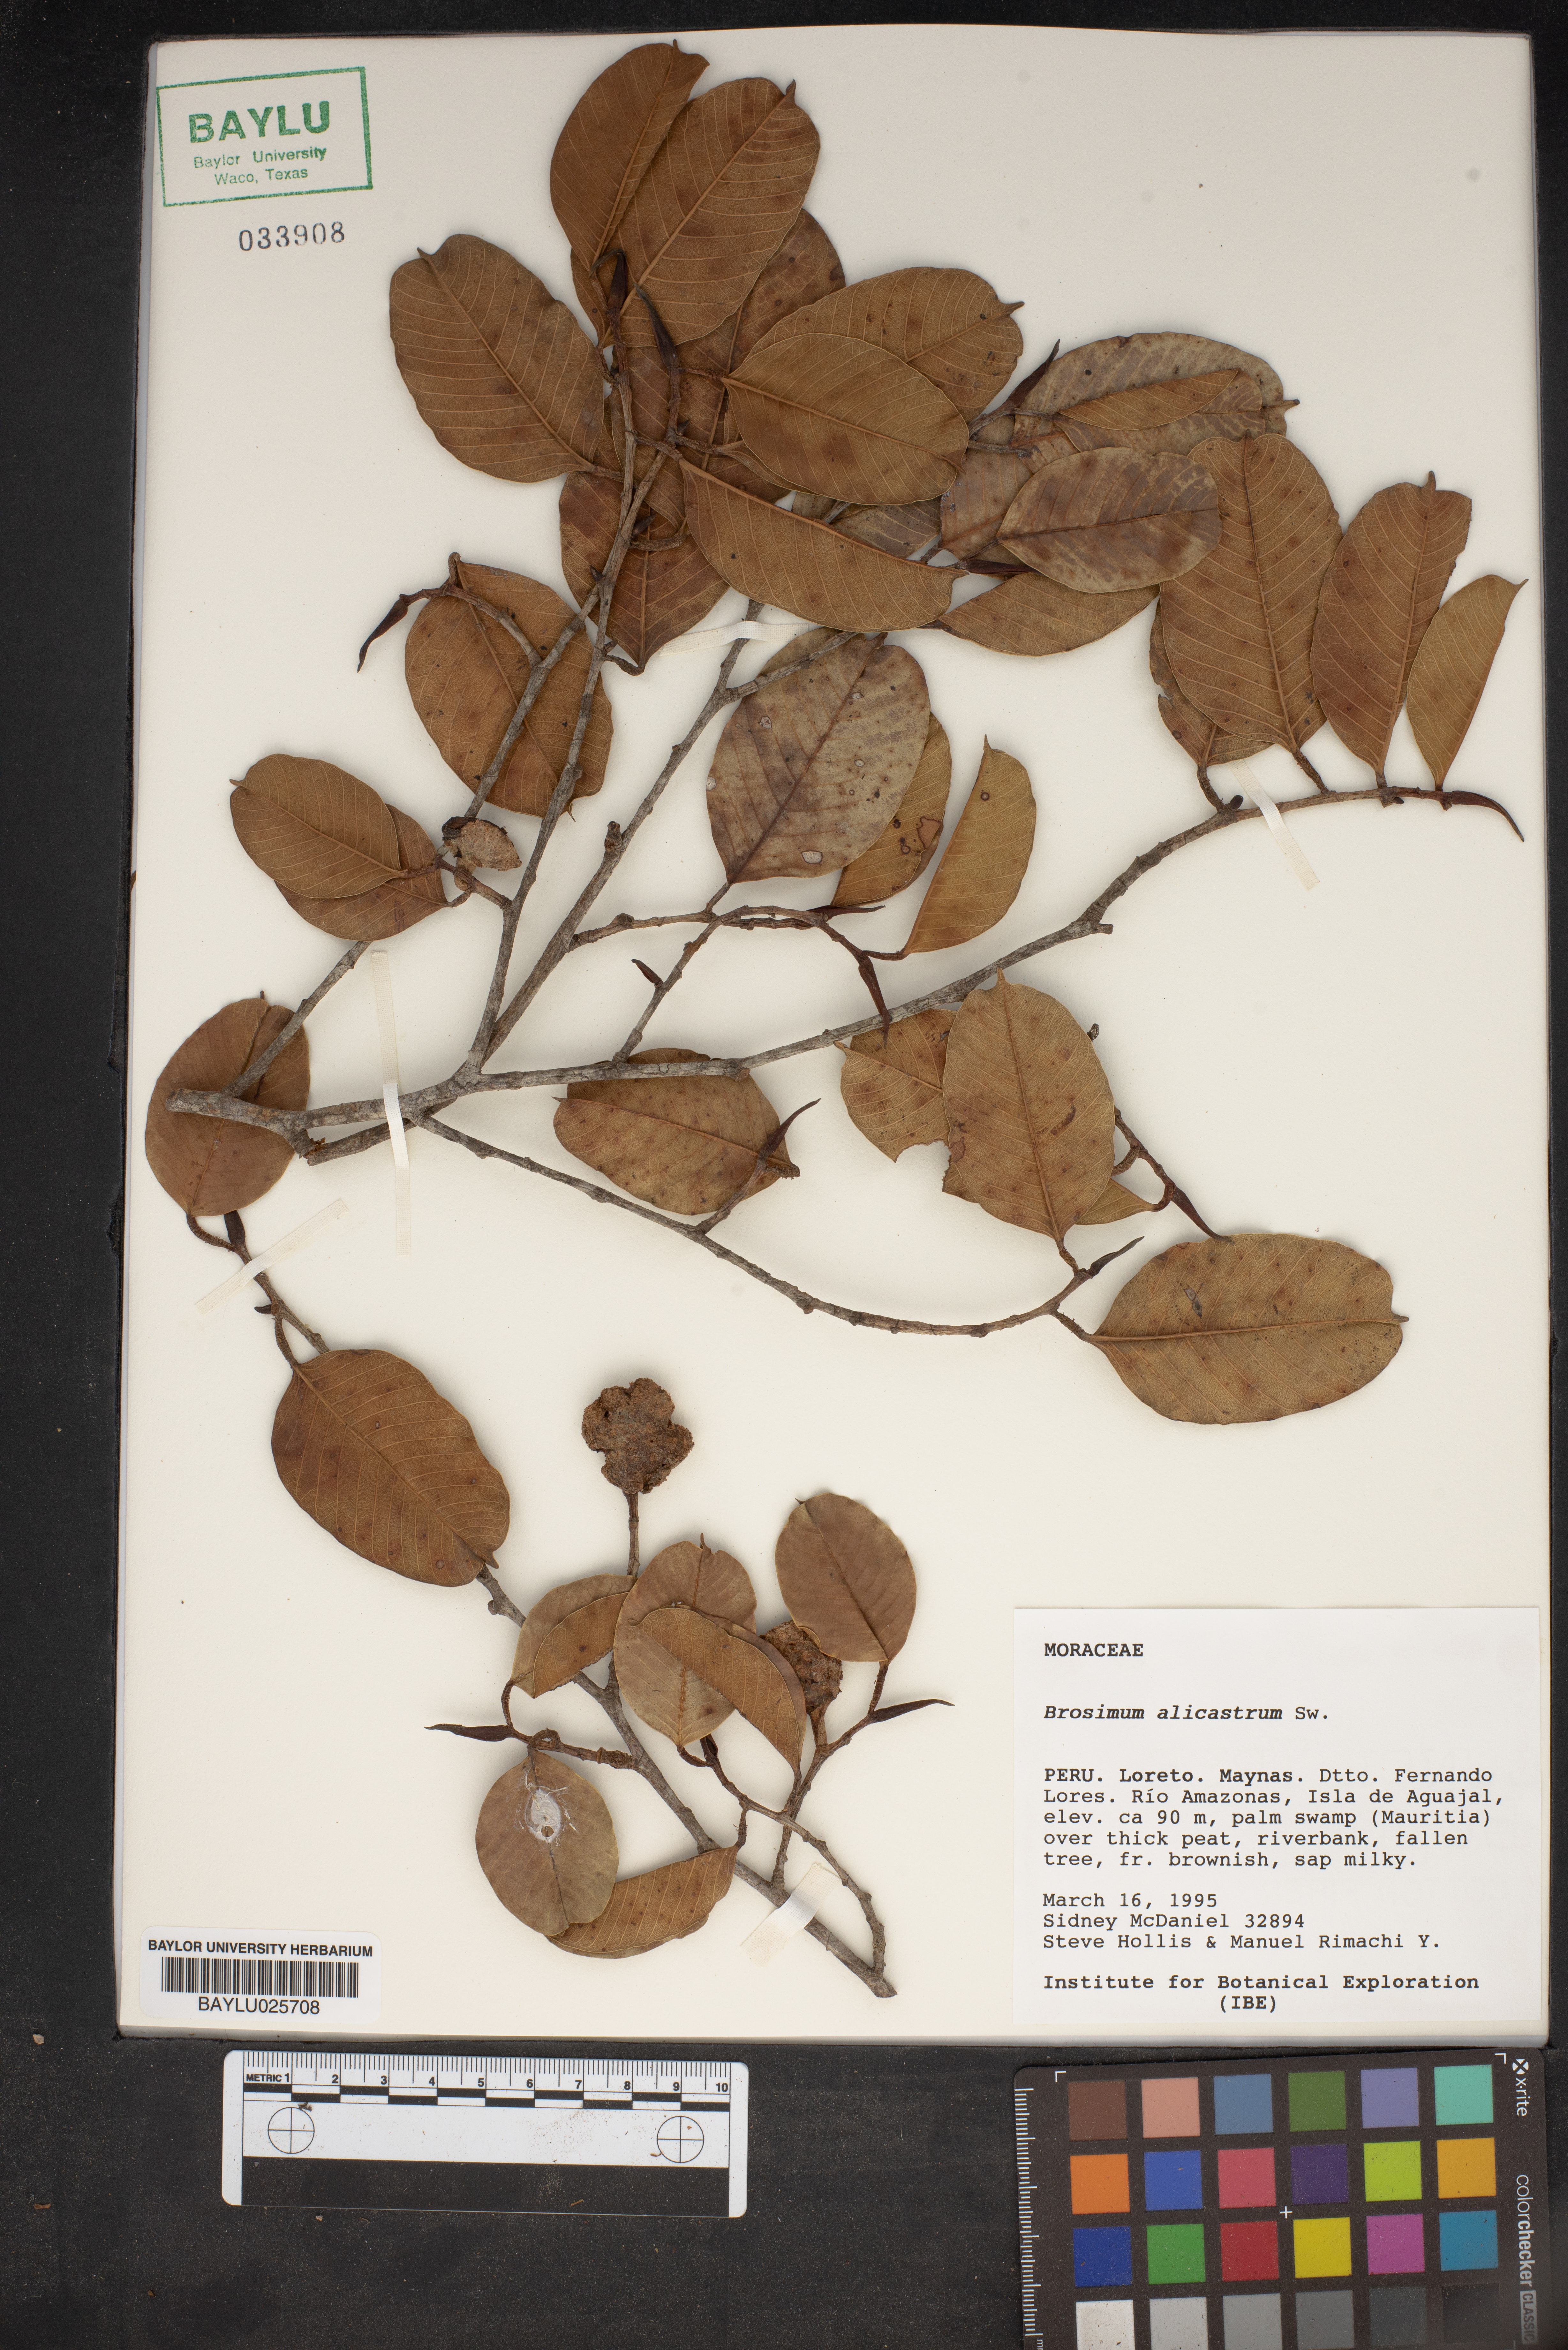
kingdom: Plantae
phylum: Tracheophyta
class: Magnoliopsida
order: Rosales
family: Moraceae
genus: Brosimum
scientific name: Brosimum alicastrum
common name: Breadnut
